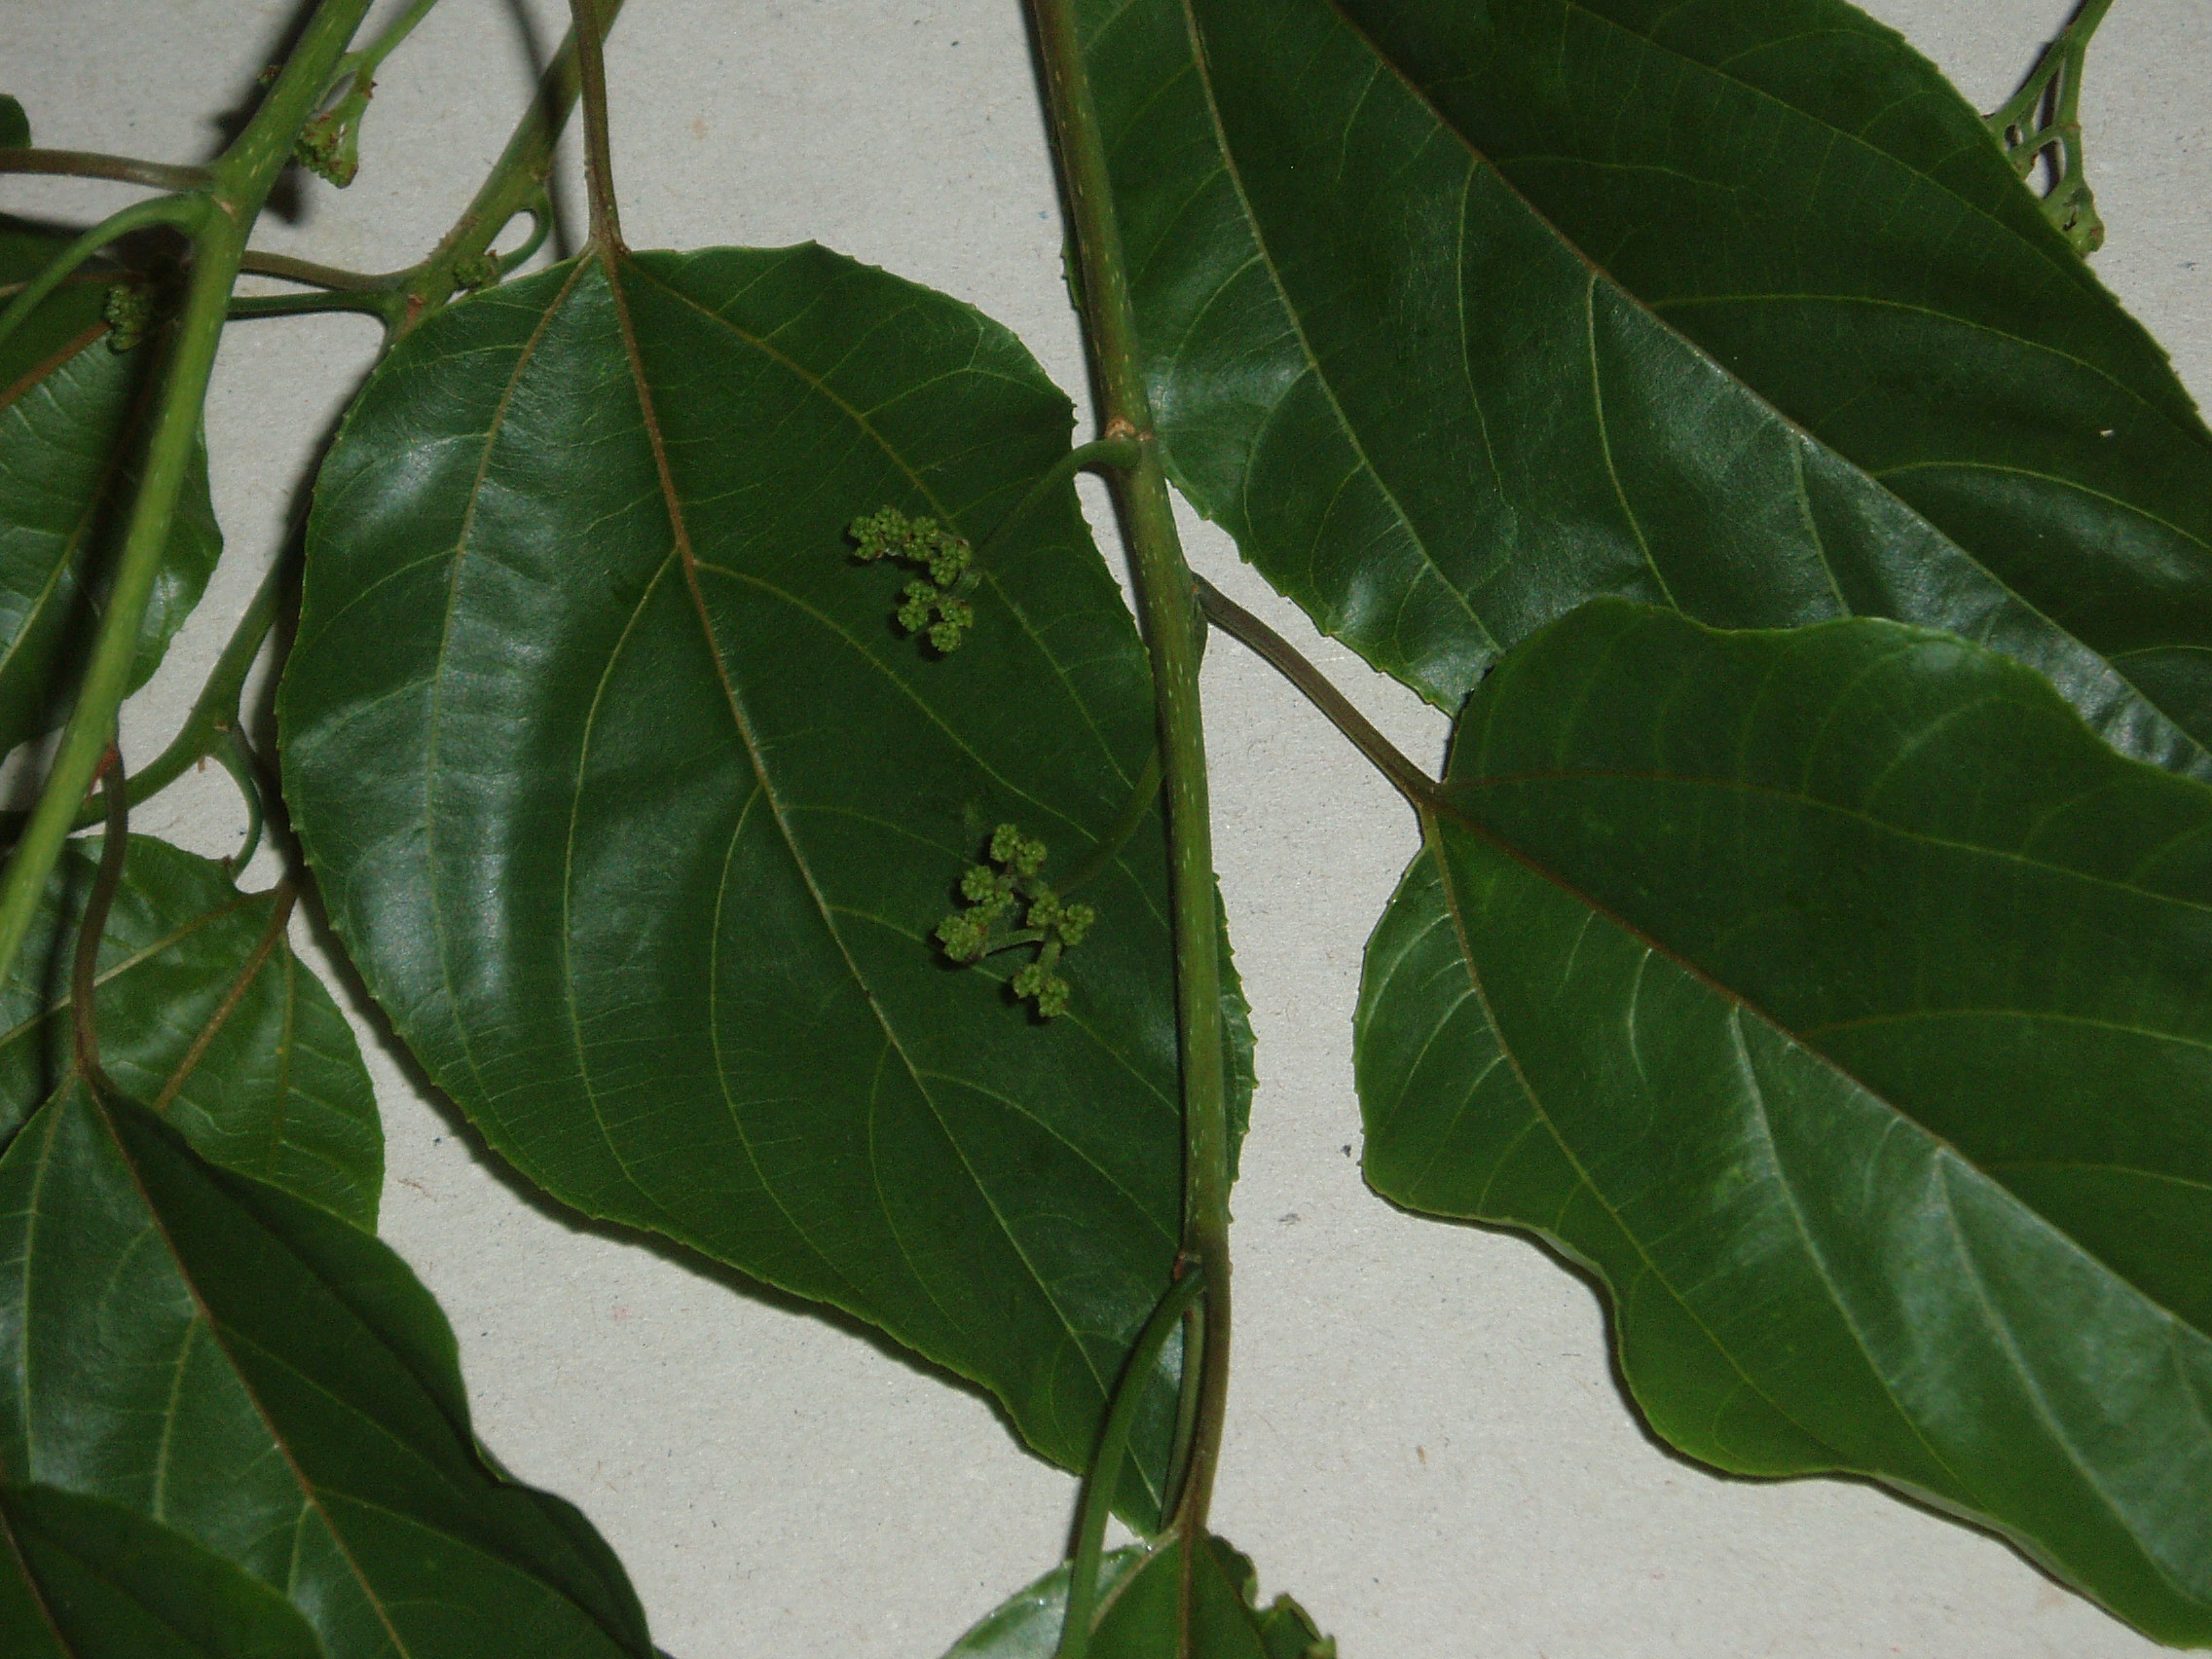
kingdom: Plantae
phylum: Tracheophyta
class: Magnoliopsida
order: Rosales
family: Rhamnaceae
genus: Hovenia
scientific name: Hovenia dulcis
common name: Japanese raisintree
